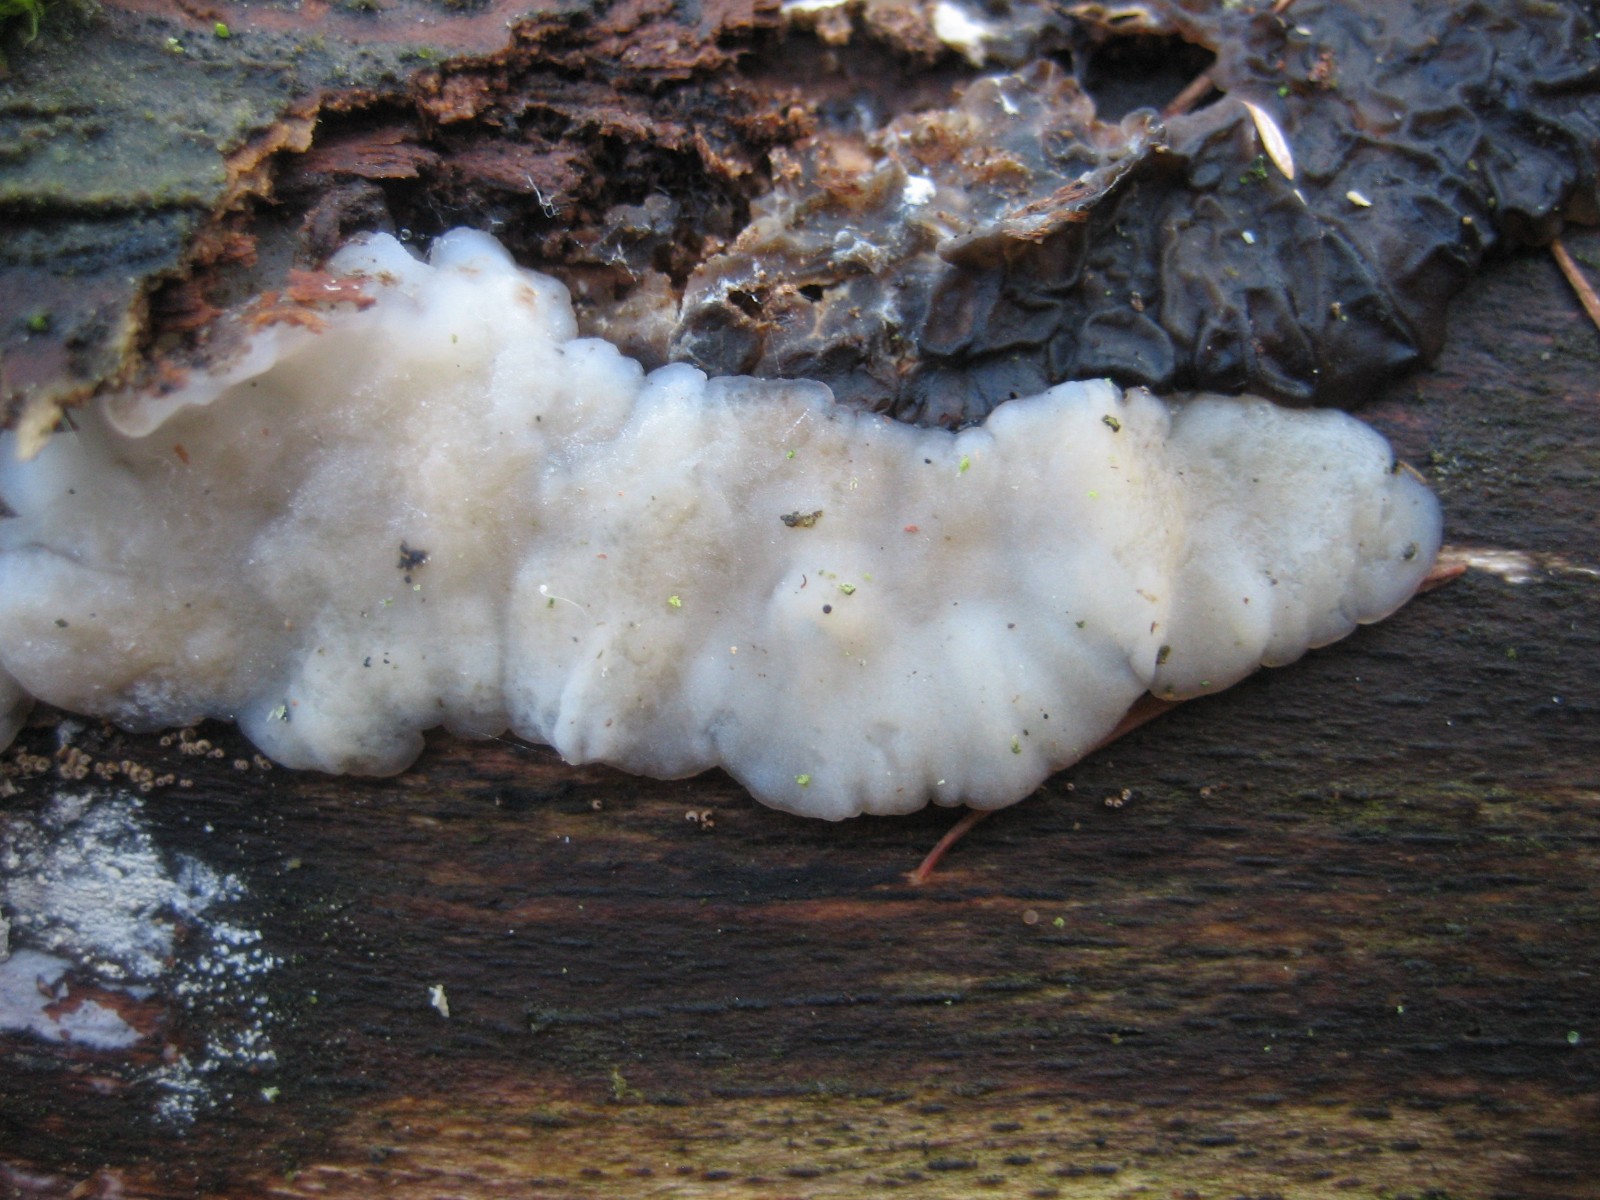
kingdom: Fungi
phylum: Basidiomycota
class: Agaricomycetes
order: Auriculariales
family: Auriculariaceae
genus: Exidia
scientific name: Exidia thuretiana
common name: hvidlig bævretop
